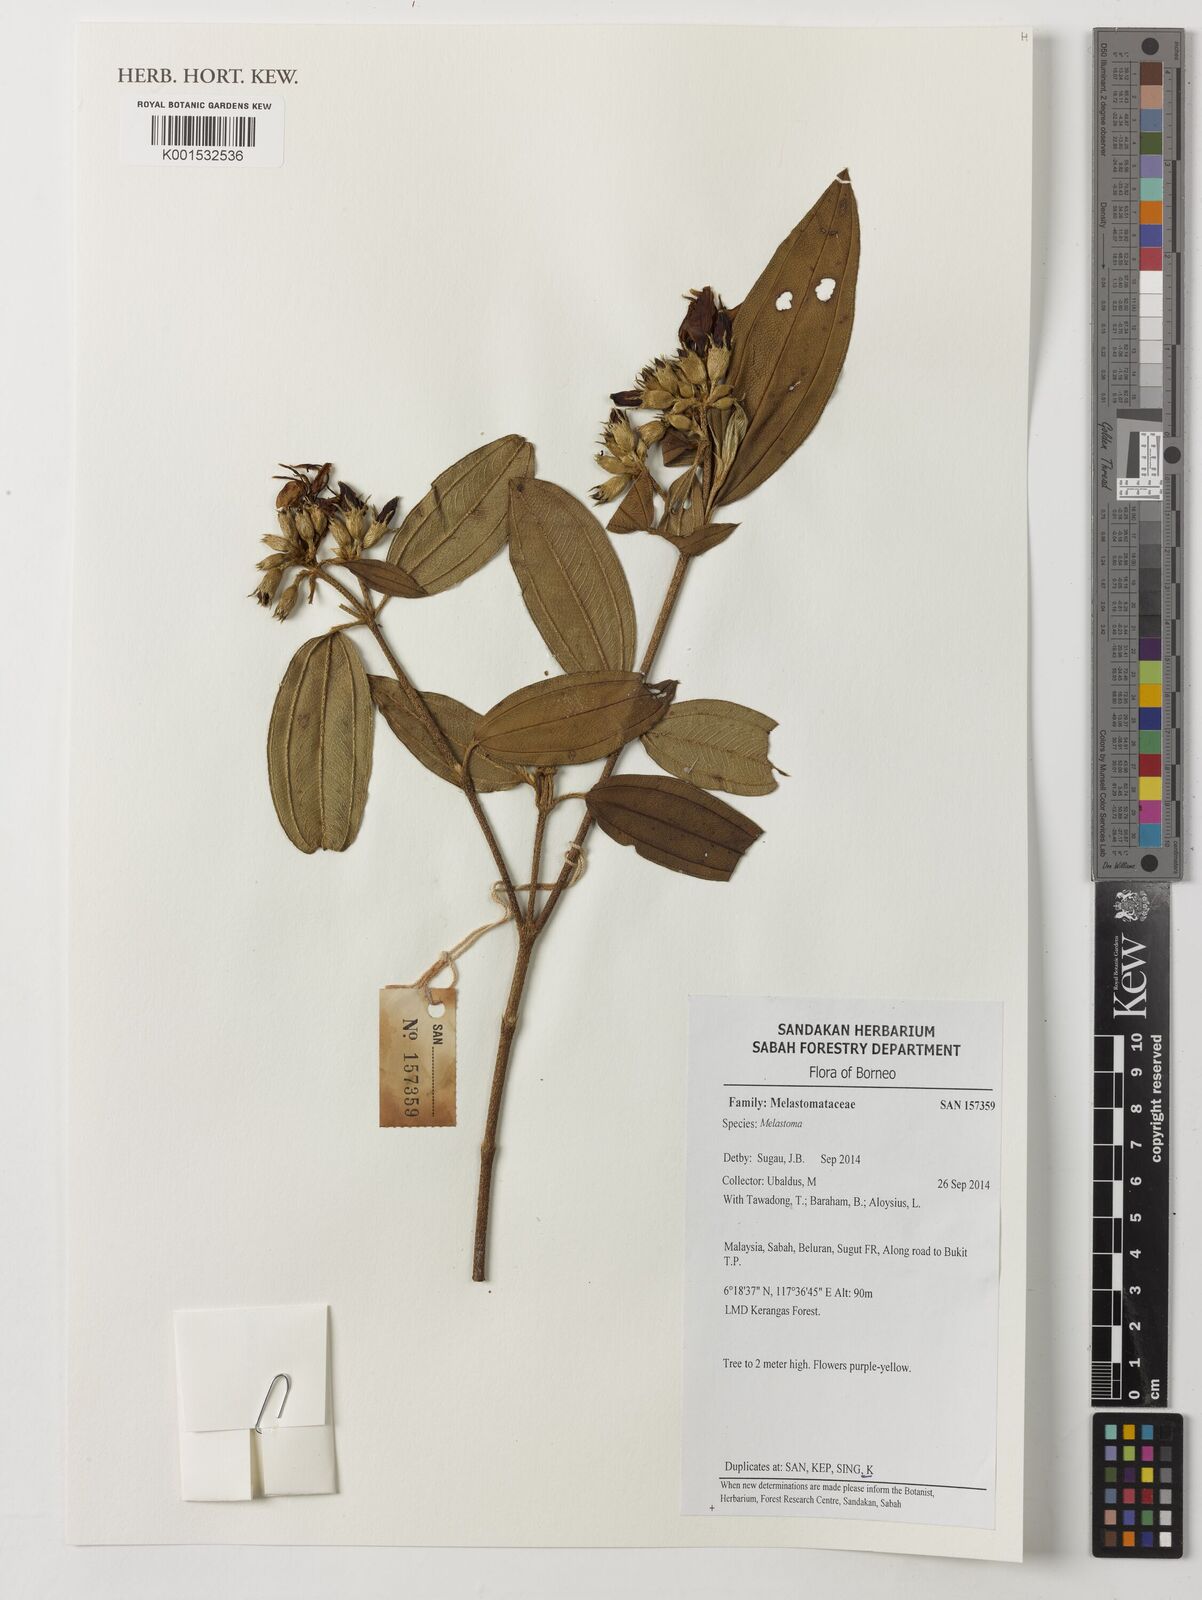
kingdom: Plantae
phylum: Tracheophyta
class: Magnoliopsida
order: Myrtales
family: Melastomataceae
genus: Melastoma
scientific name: Melastoma
